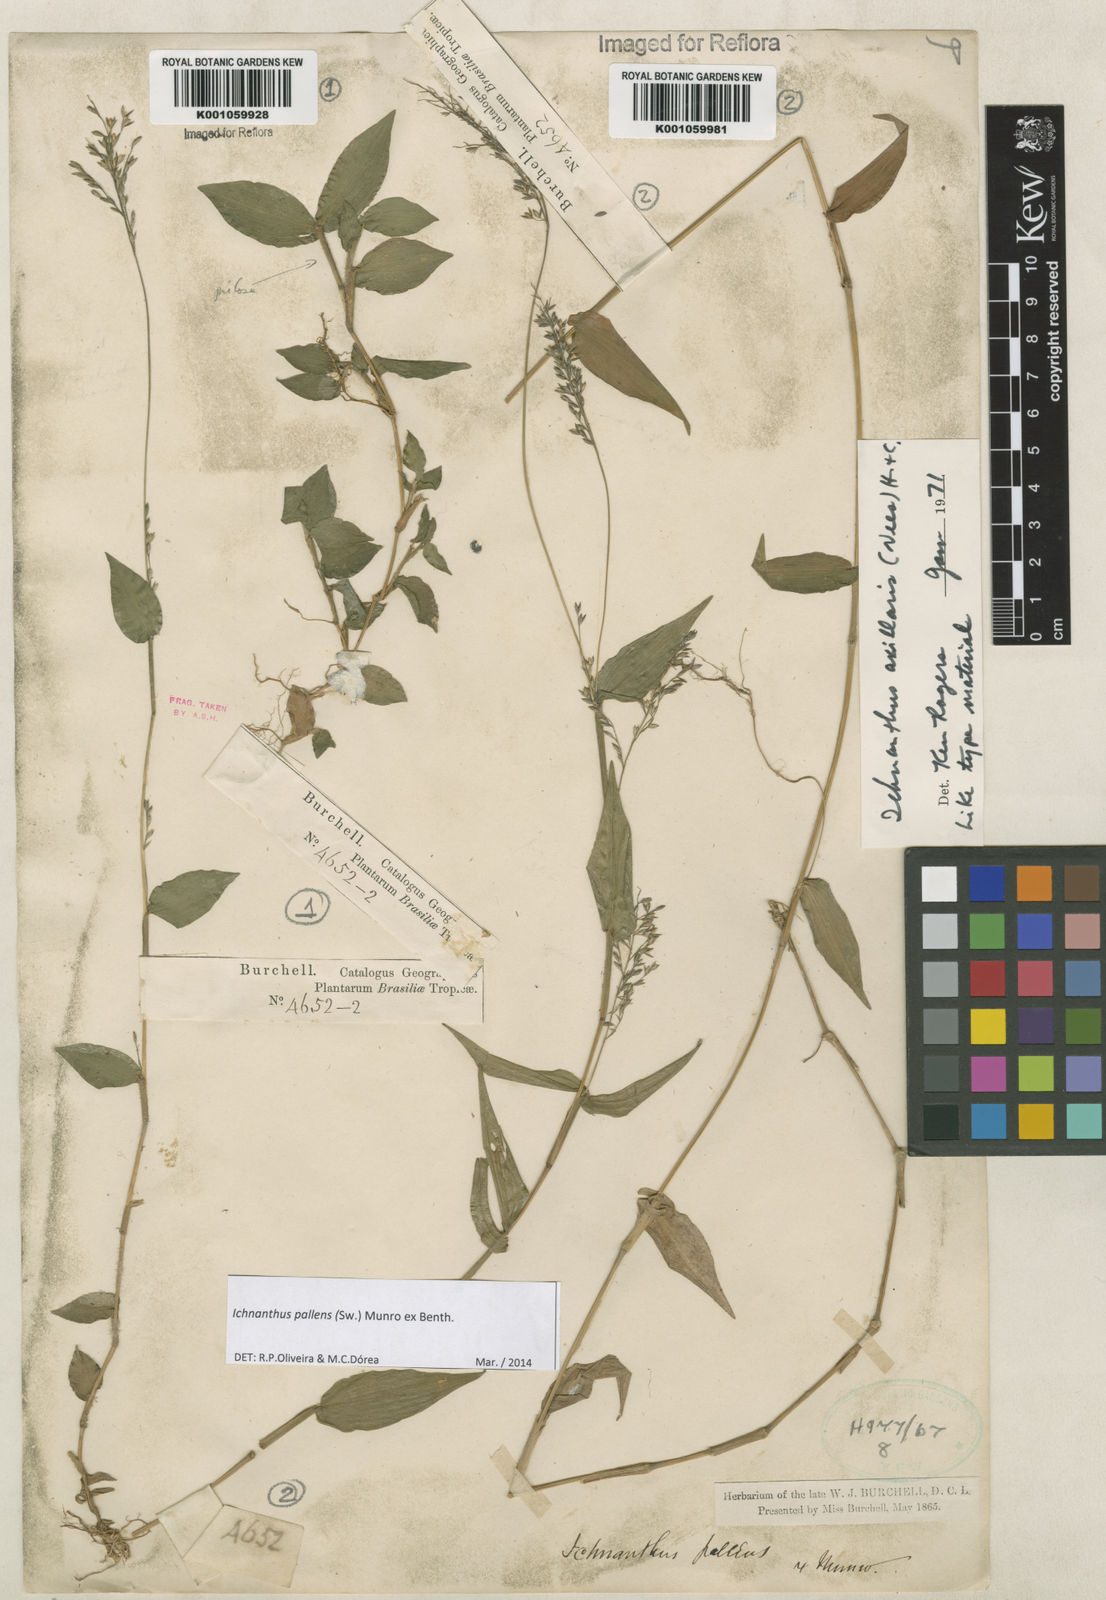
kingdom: Plantae
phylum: Tracheophyta
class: Liliopsida
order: Poales
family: Poaceae
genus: Ichnanthus
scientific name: Ichnanthus pallens
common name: Water grass
